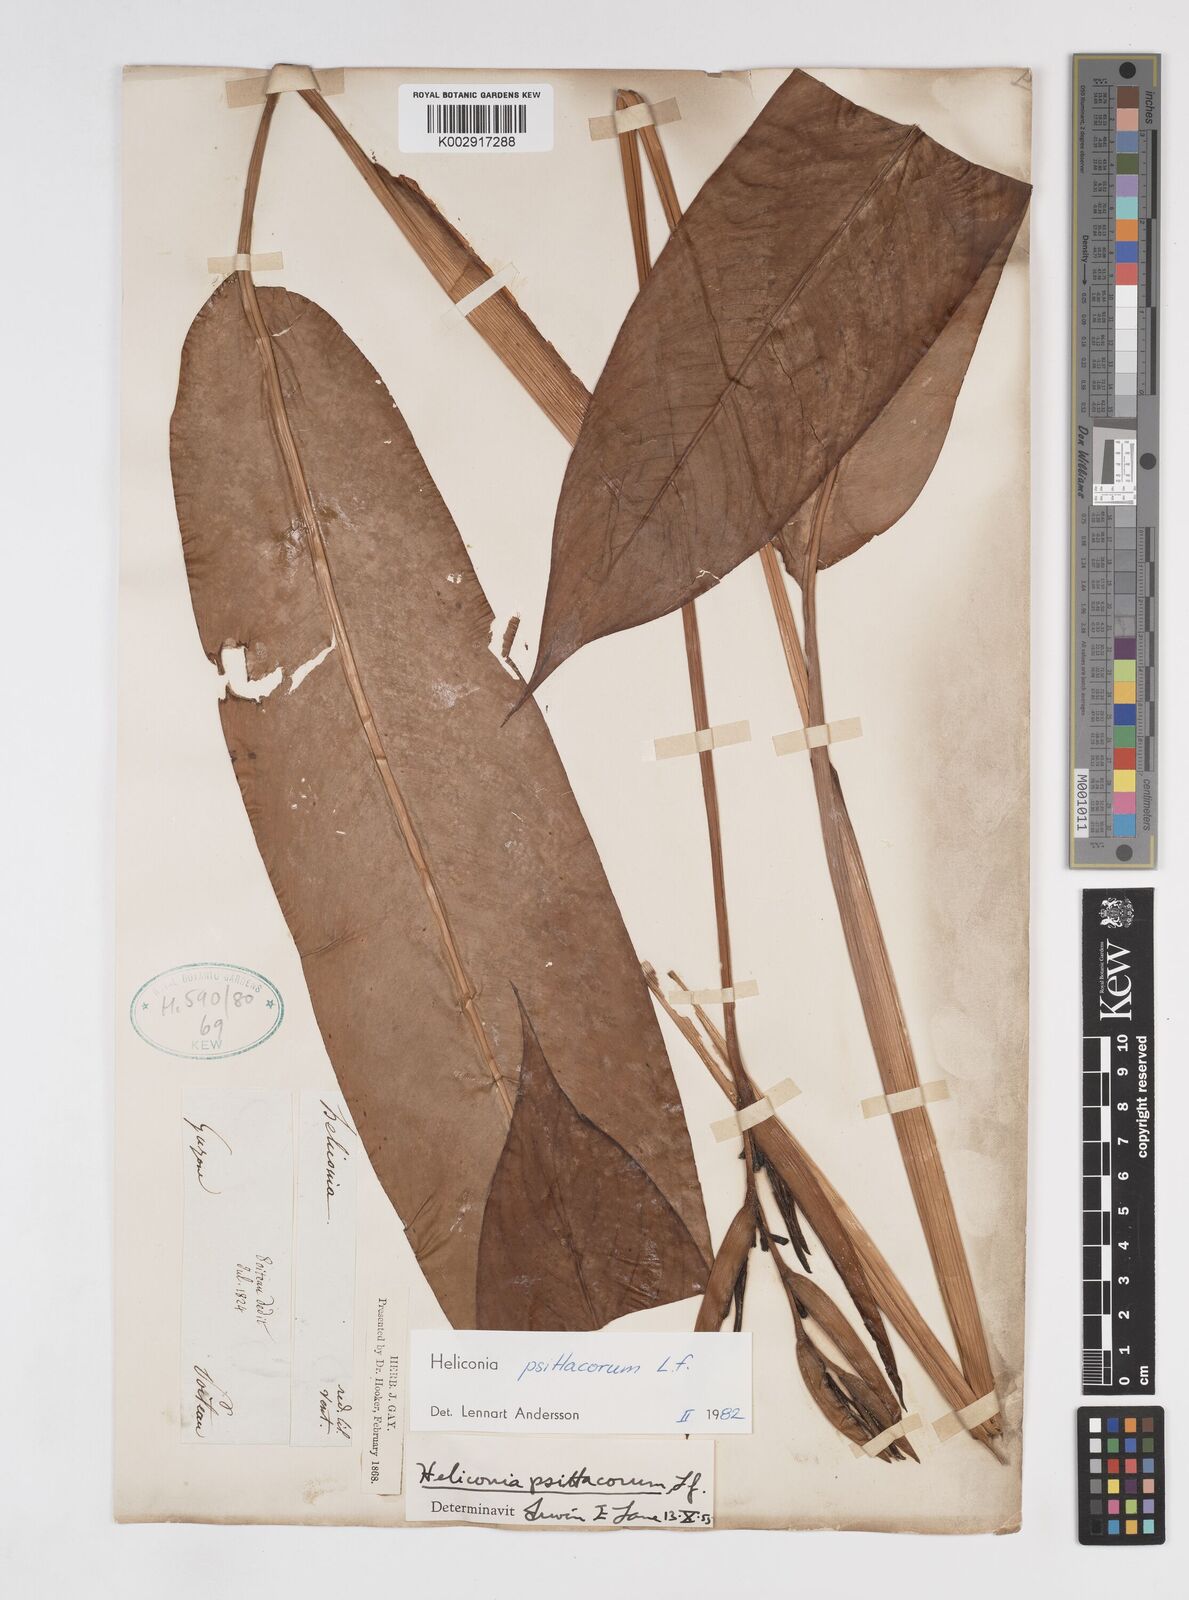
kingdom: Plantae
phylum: Tracheophyta
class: Liliopsida
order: Zingiberales
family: Heliconiaceae
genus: Heliconia
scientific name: Heliconia psittacorum
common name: Parrot's-flower
